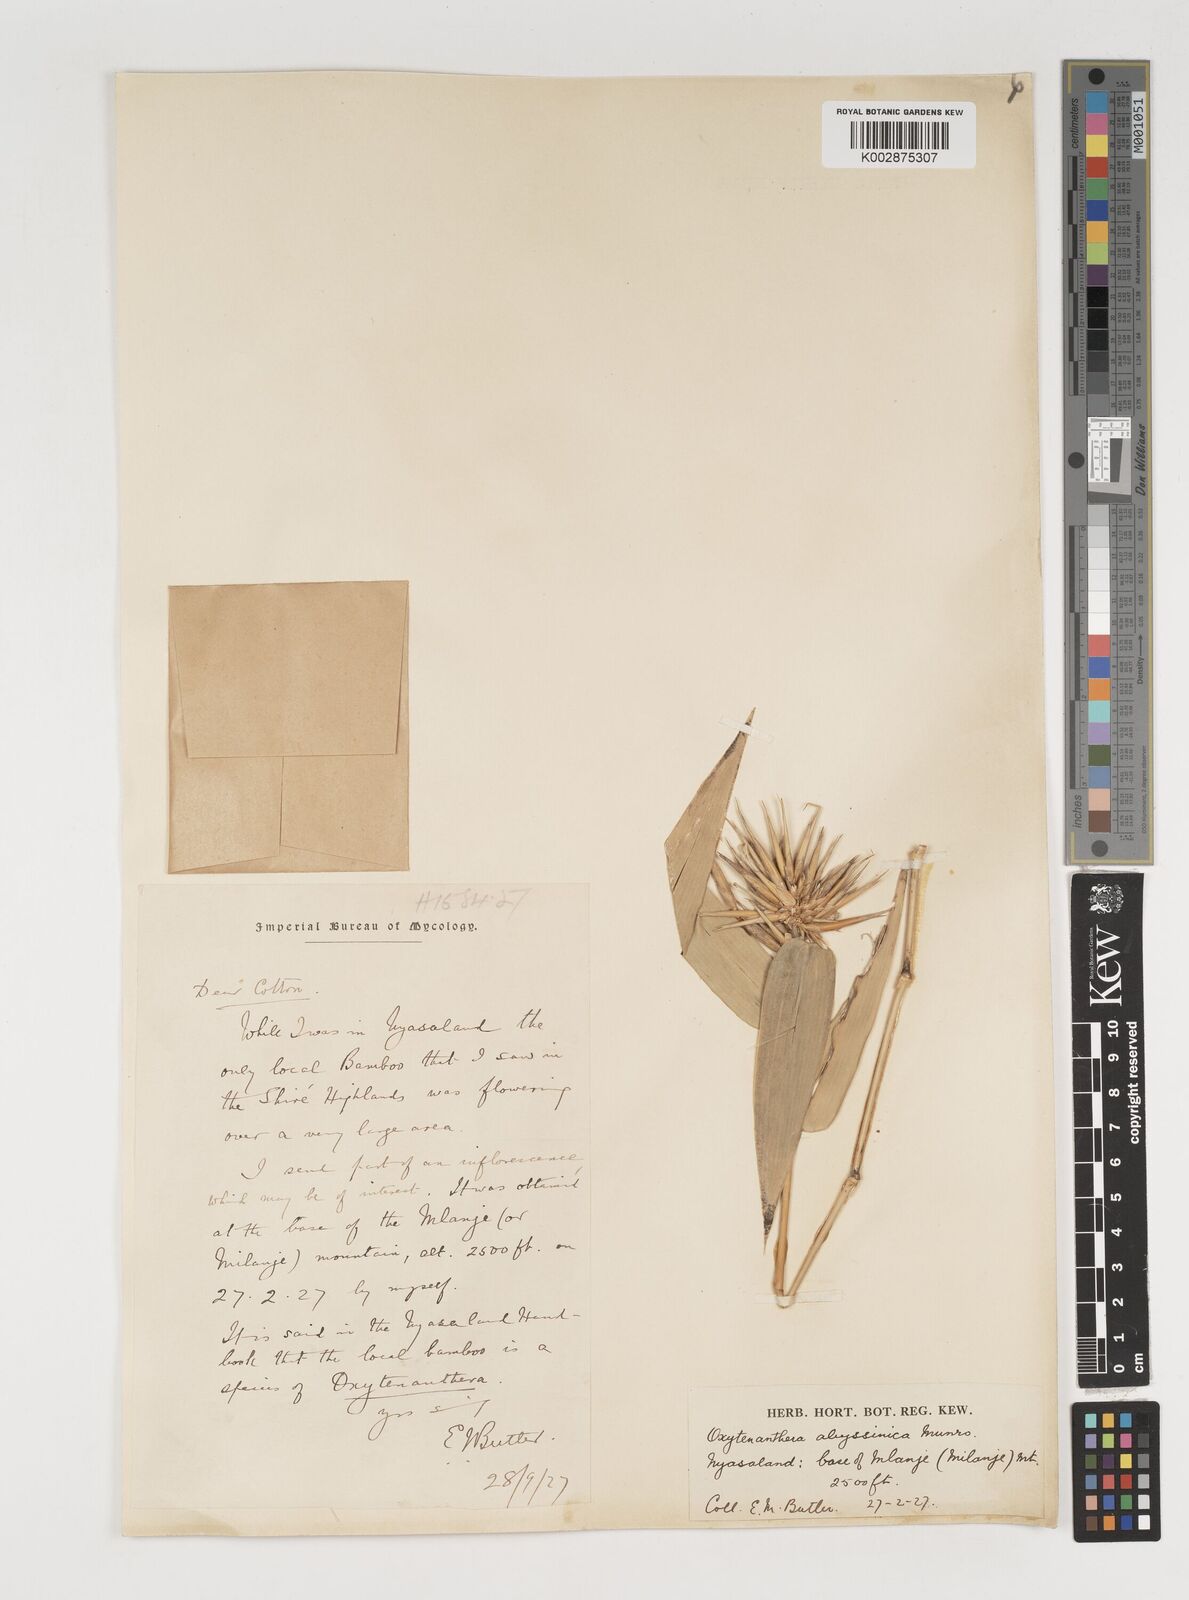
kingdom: Plantae
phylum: Tracheophyta
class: Liliopsida
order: Poales
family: Poaceae
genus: Oxytenanthera
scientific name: Oxytenanthera abyssinica
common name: Wine bamboo
